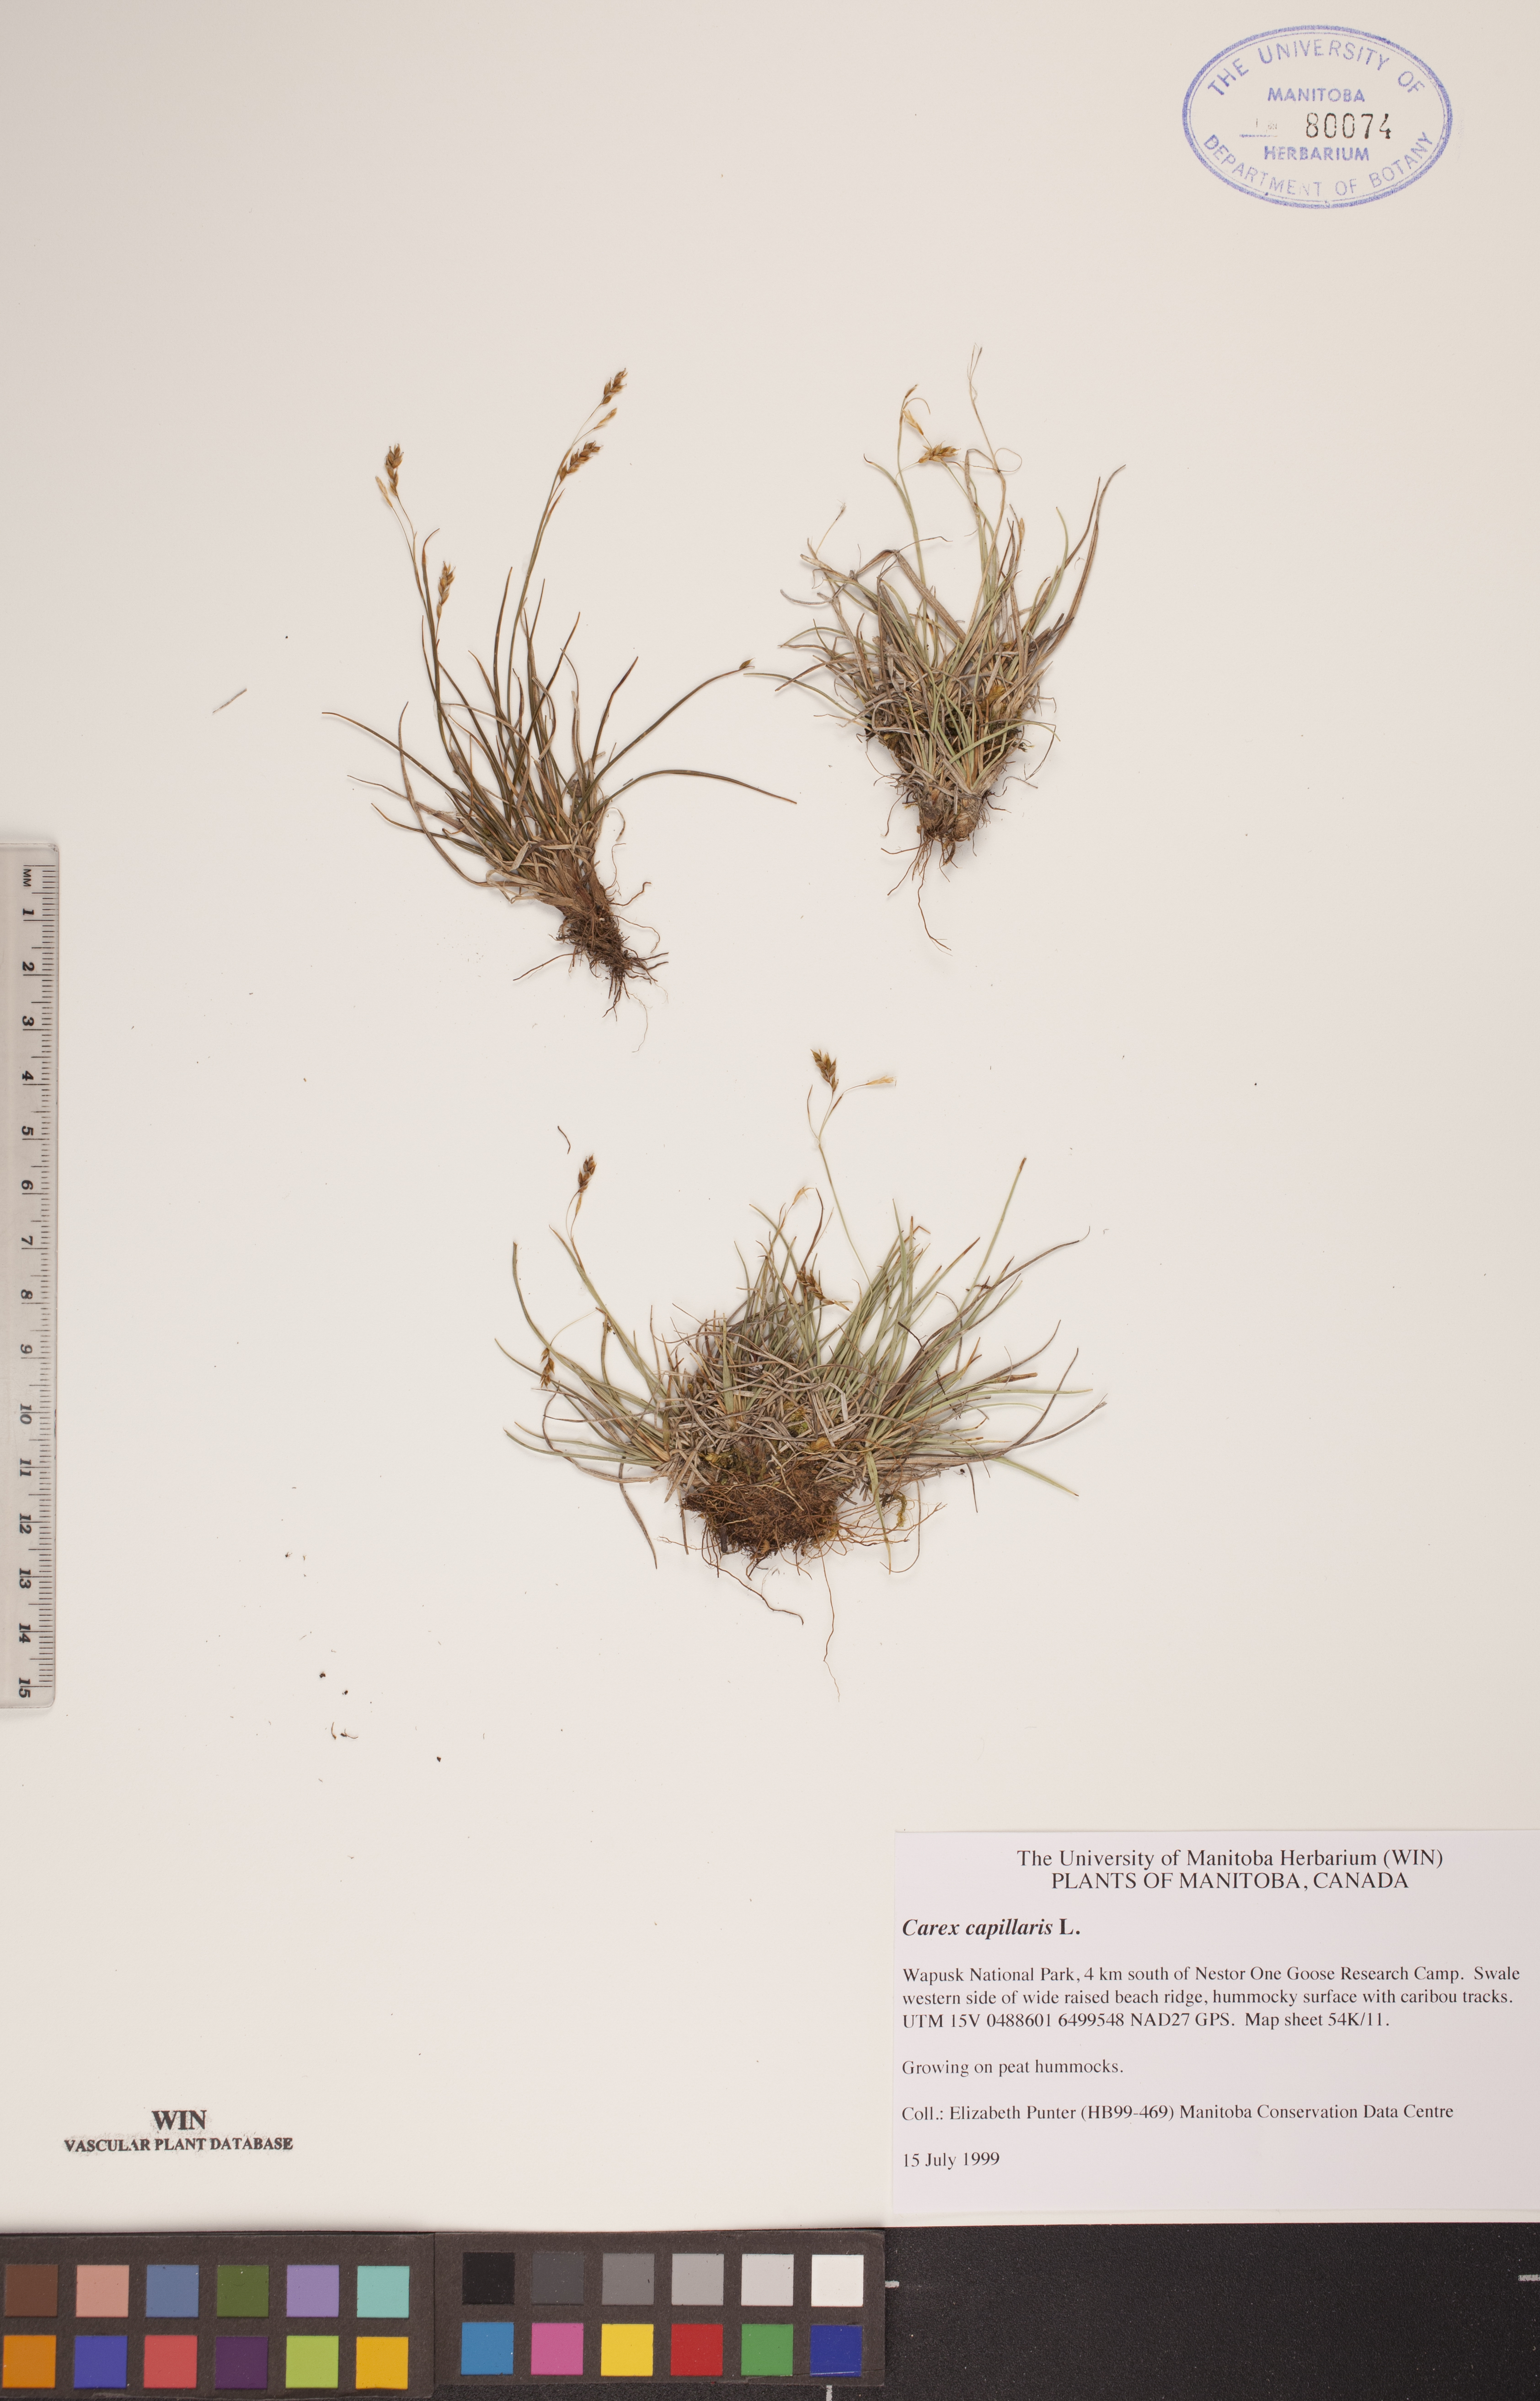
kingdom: Plantae
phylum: Tracheophyta
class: Liliopsida
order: Poales
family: Cyperaceae
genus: Carex
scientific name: Carex capillaris
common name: Hair sedge
